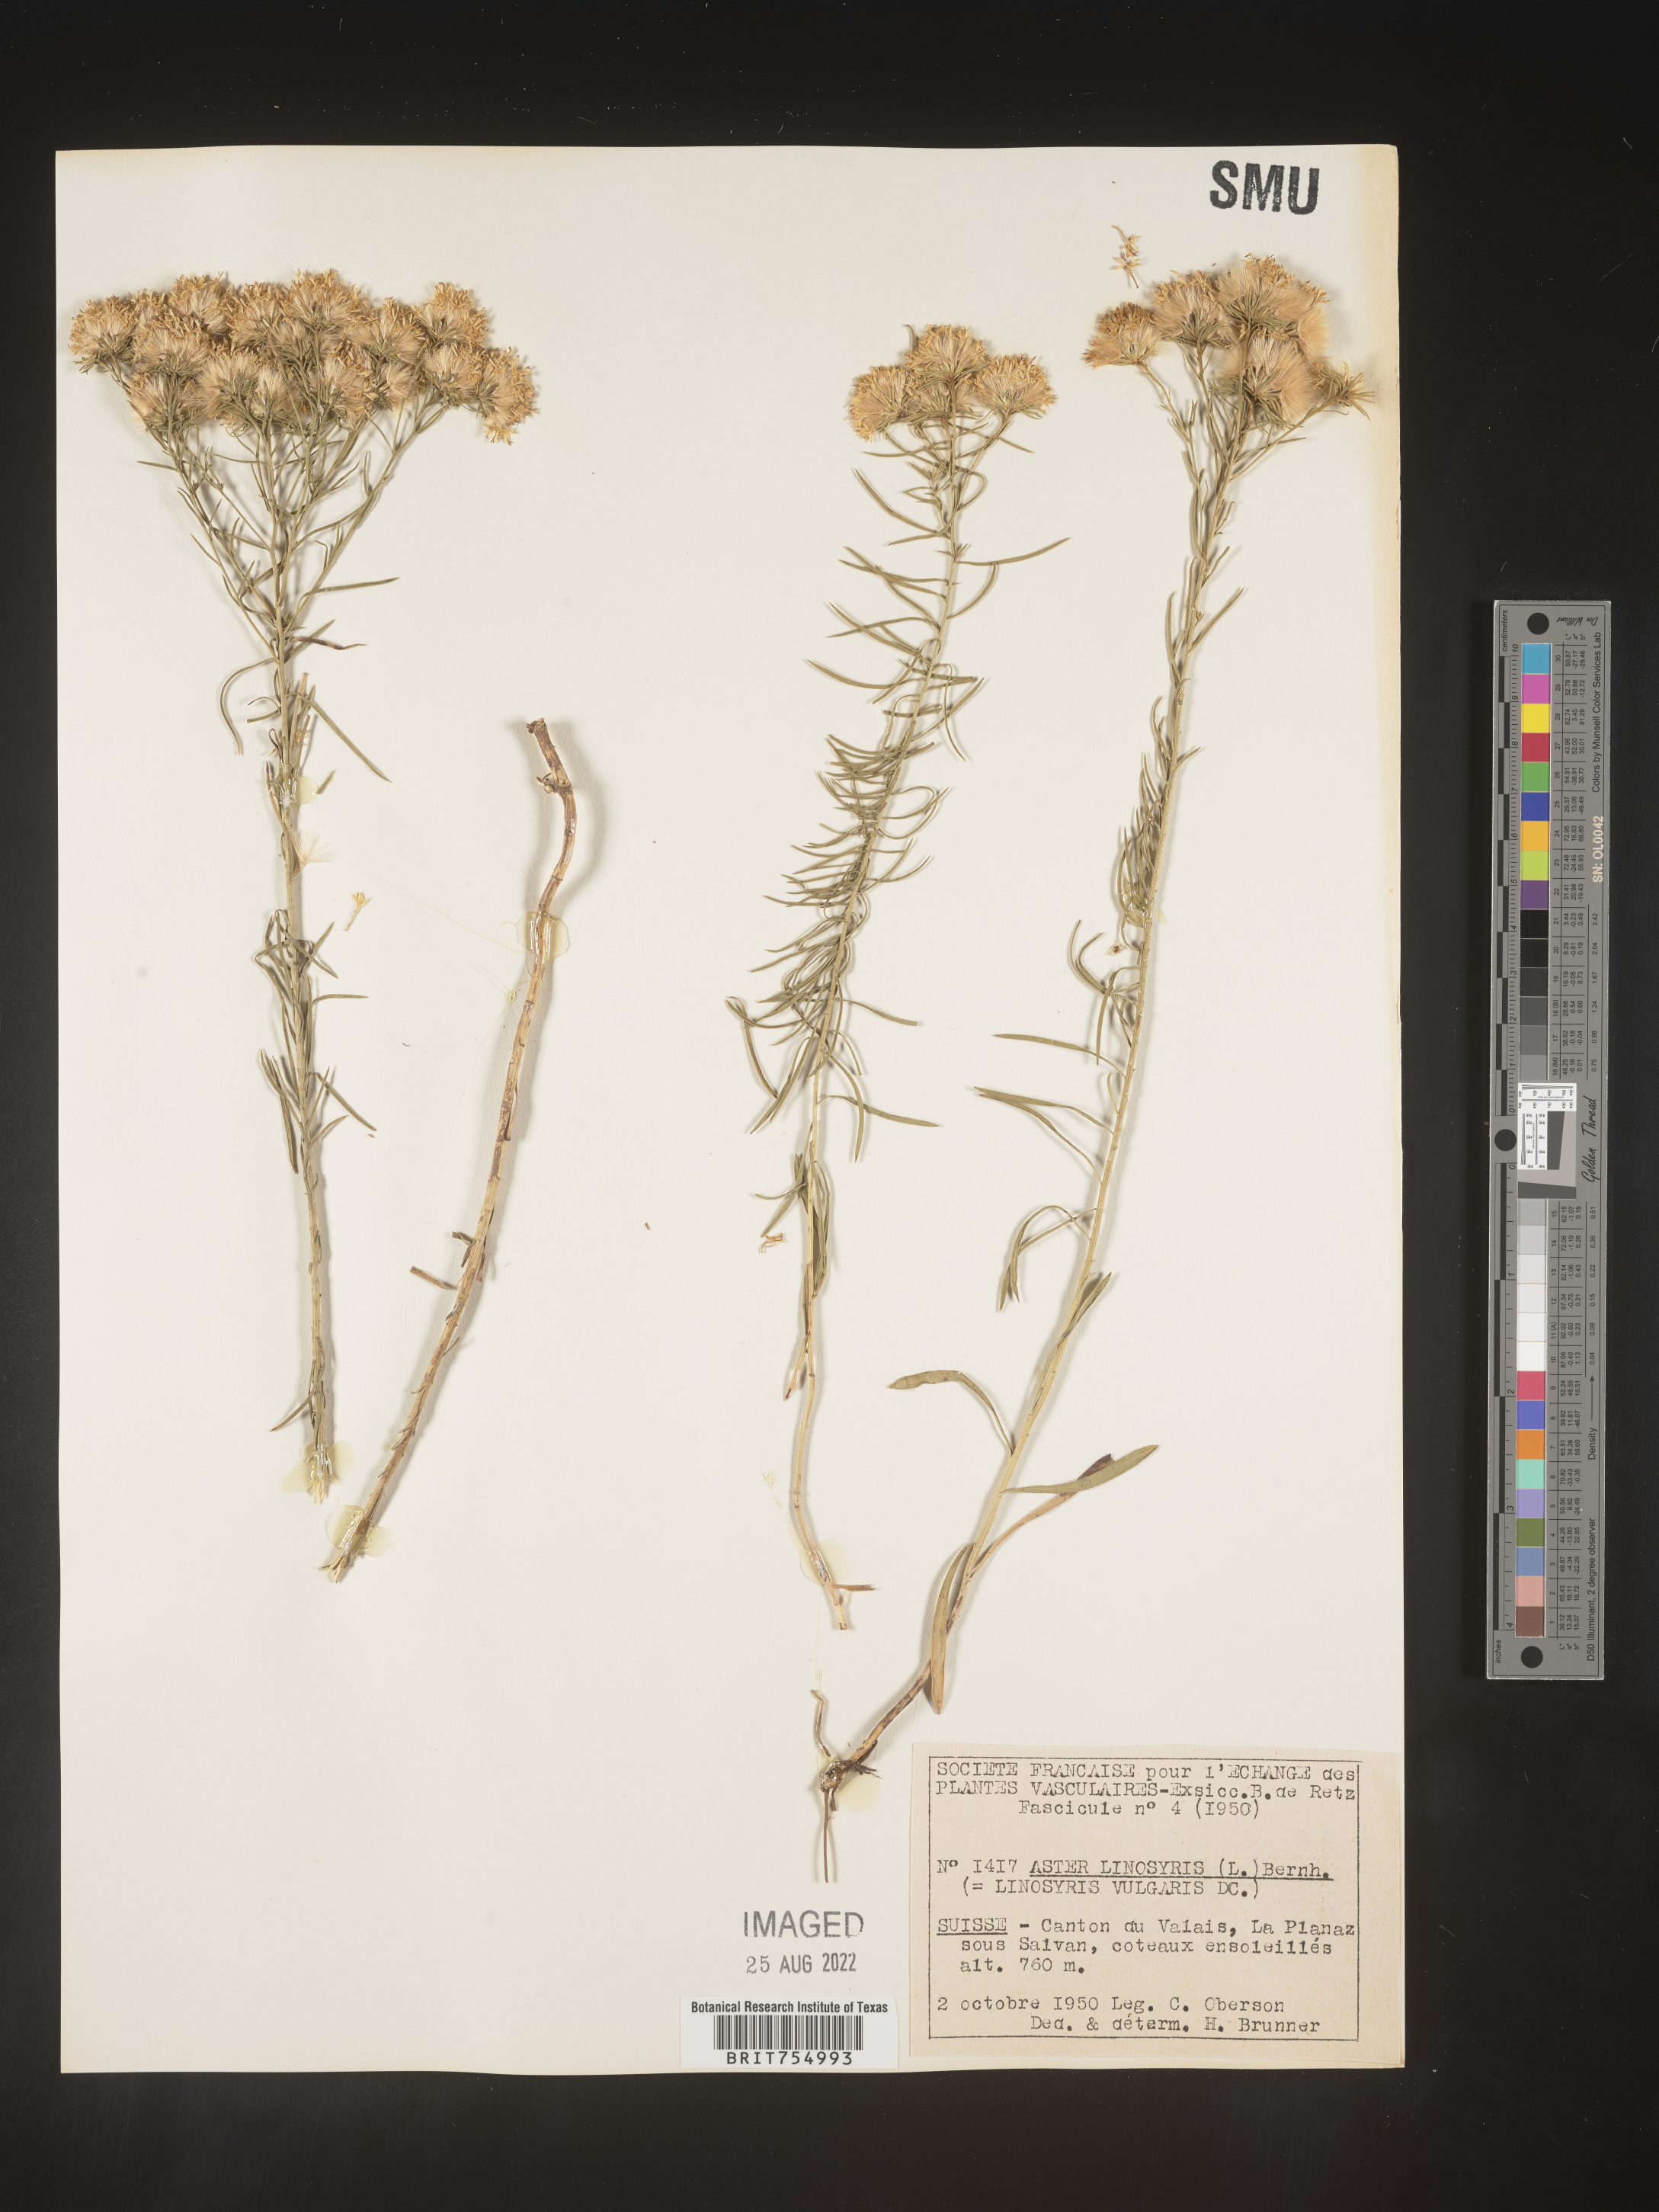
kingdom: Plantae
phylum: Tracheophyta
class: Magnoliopsida
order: Asterales
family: Asteraceae
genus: Symphyotrichum
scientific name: Symphyotrichum
